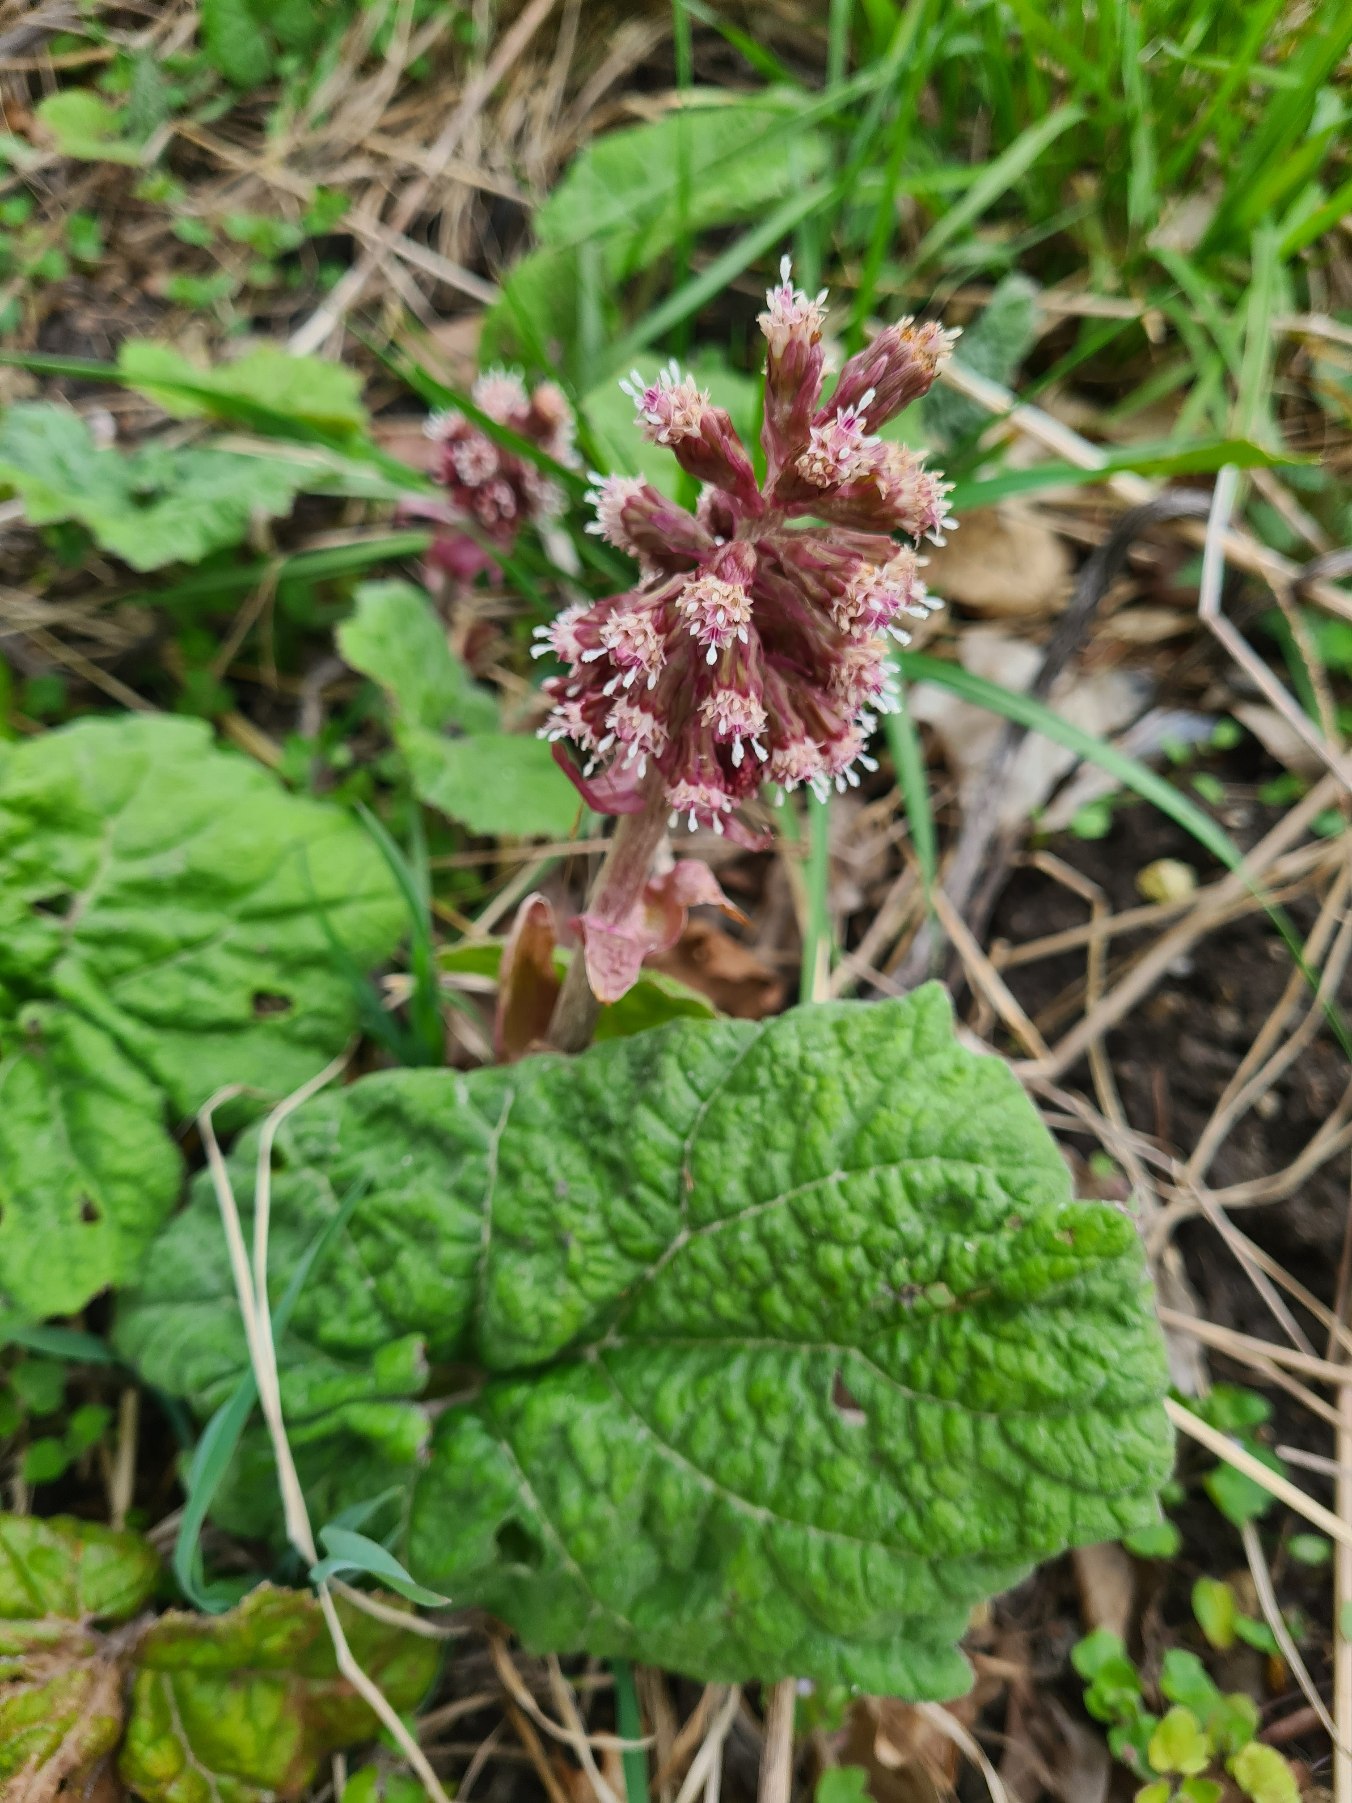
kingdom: Plantae
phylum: Tracheophyta
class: Magnoliopsida
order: Asterales
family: Asteraceae
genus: Petasites
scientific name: Petasites hybridus
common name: Rød hestehov
